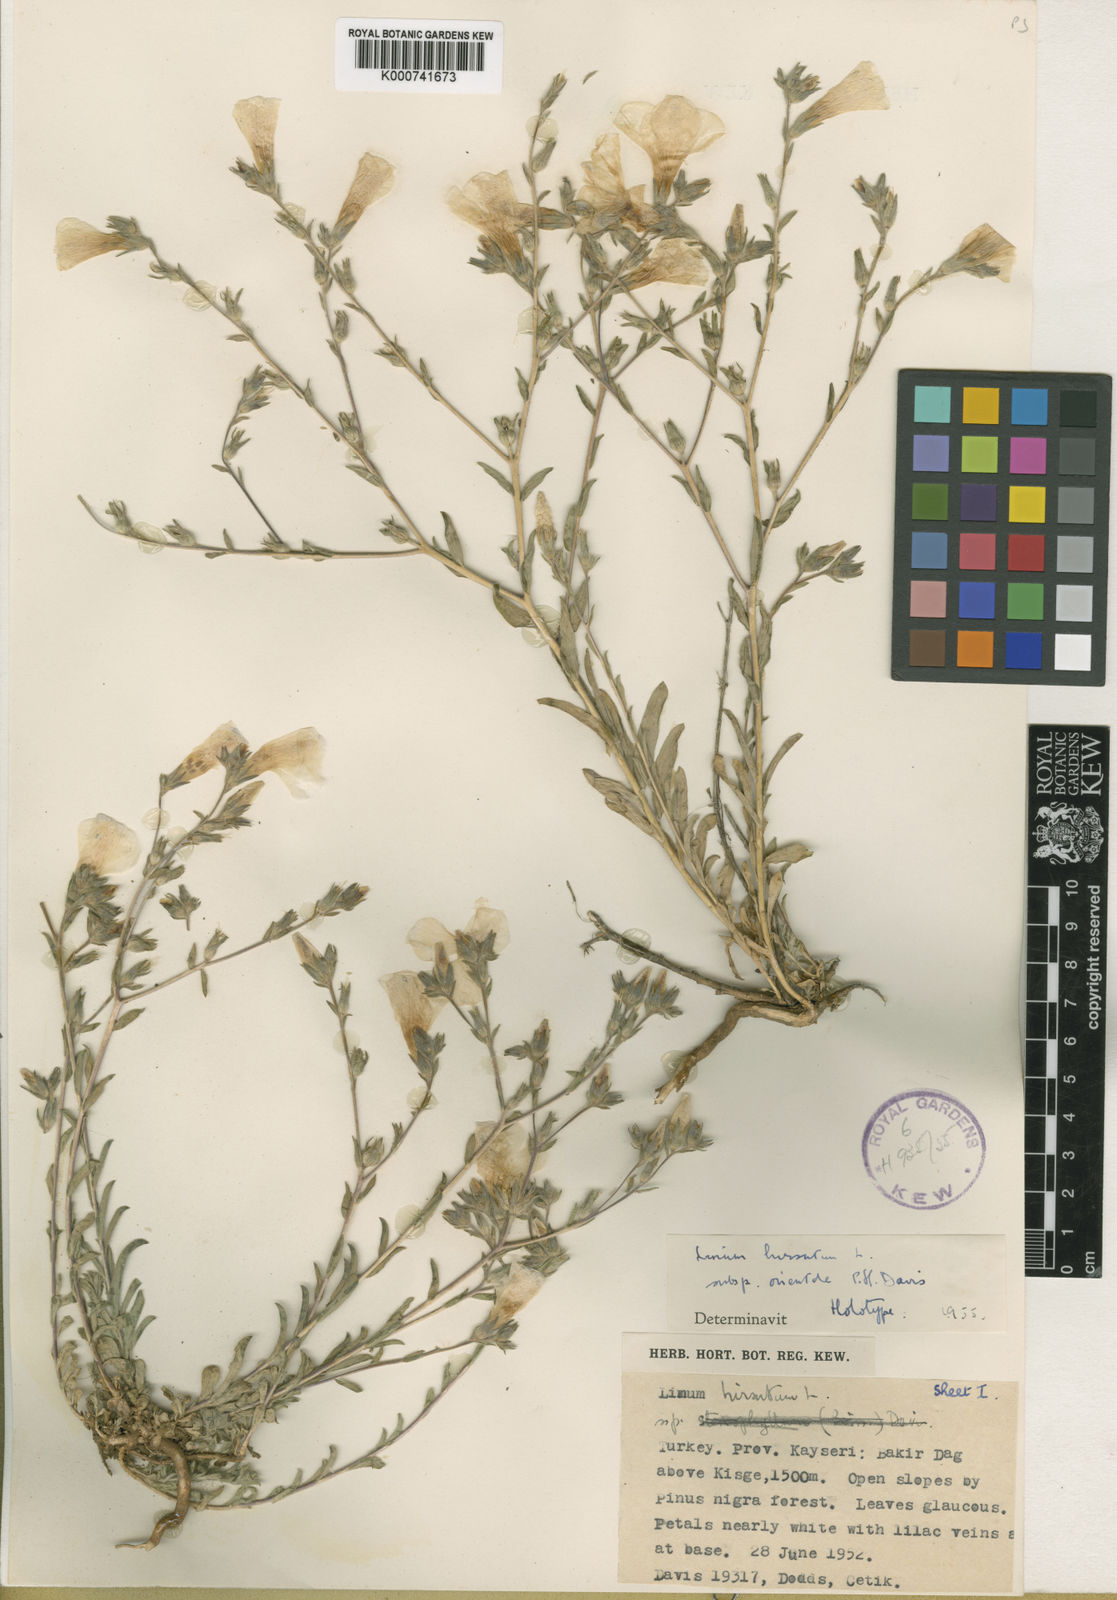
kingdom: Plantae
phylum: Tracheophyta
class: Magnoliopsida
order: Malpighiales
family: Linaceae
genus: Linum
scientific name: Linum hirsutum
